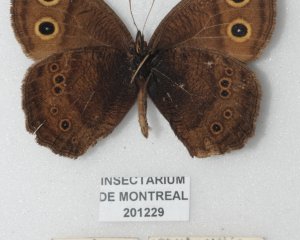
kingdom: Animalia
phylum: Arthropoda
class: Insecta
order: Lepidoptera
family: Nymphalidae
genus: Cercyonis
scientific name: Cercyonis pegala
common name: Common Wood-Nymph
